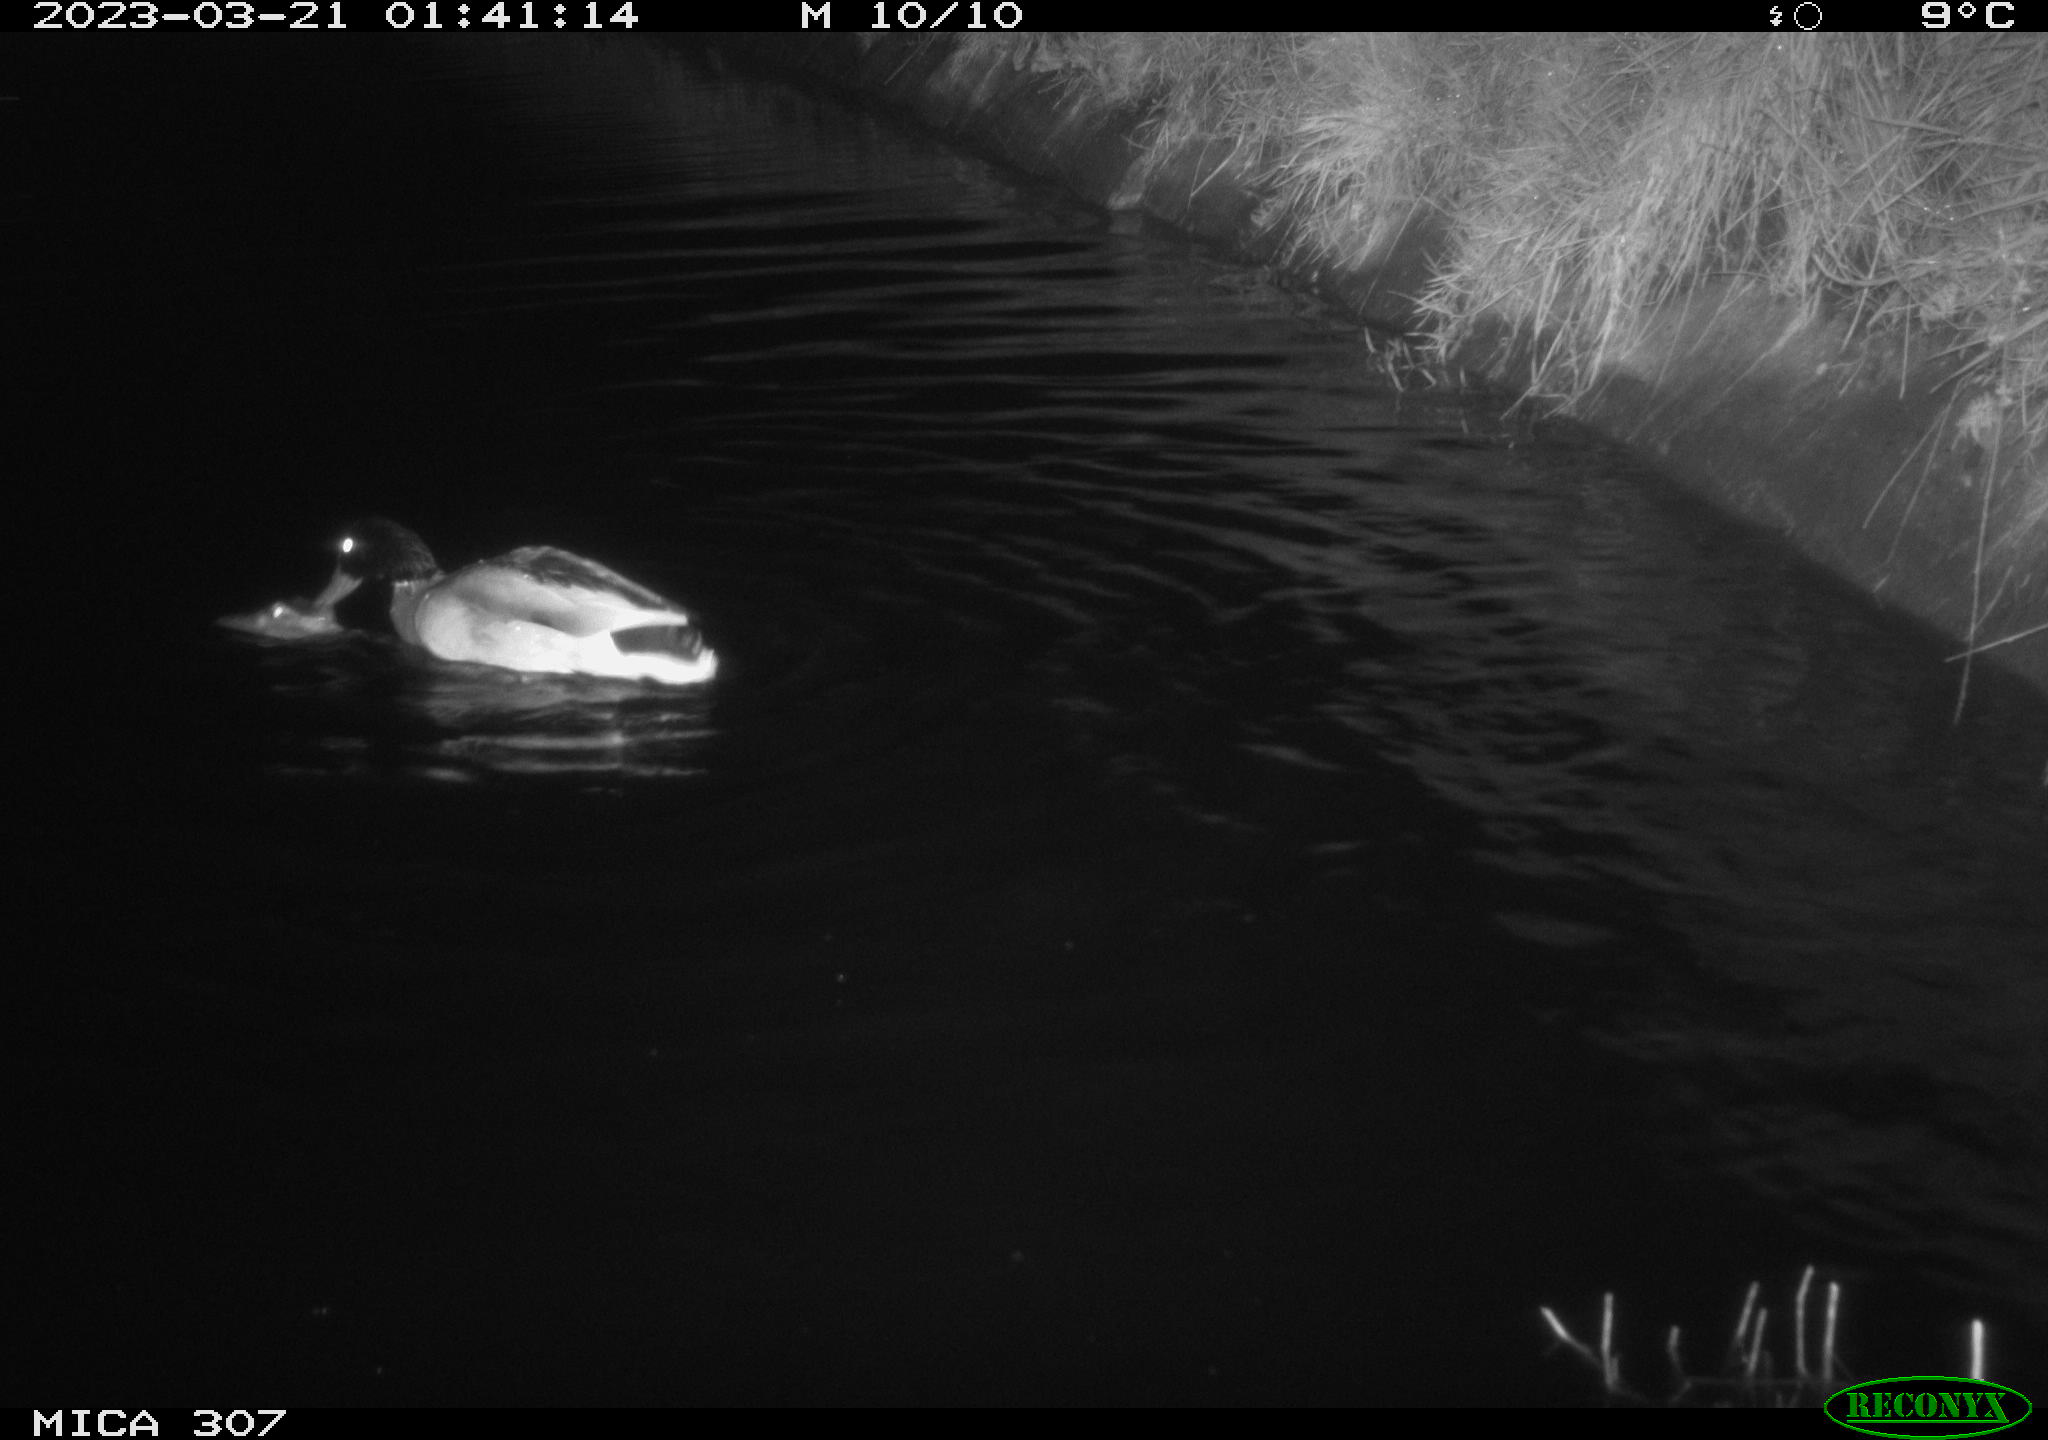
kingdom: Animalia
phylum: Chordata
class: Aves
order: Anseriformes
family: Anatidae
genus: Anas
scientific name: Anas
